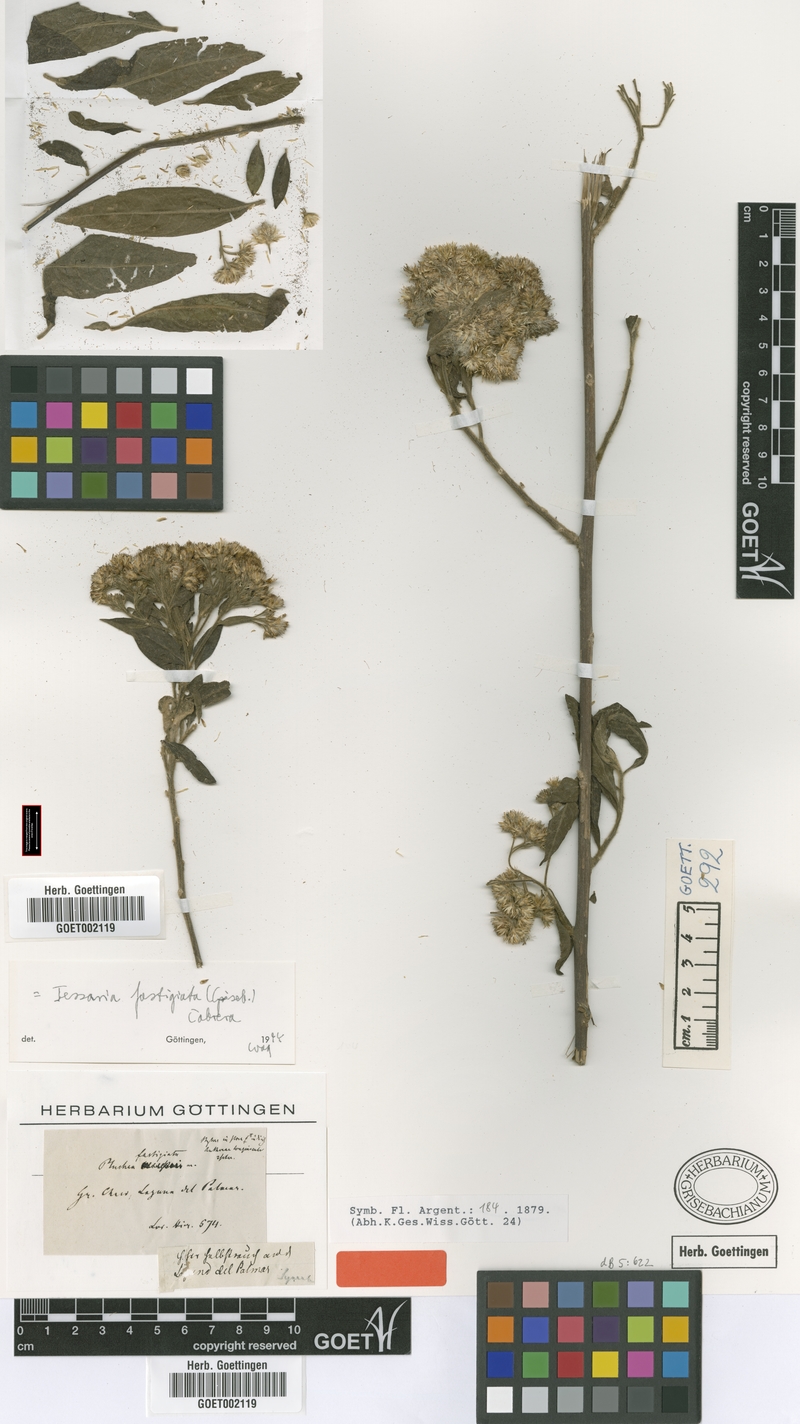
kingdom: Plantae
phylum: Tracheophyta
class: Magnoliopsida
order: Asterales
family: Asteraceae
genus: Tessaria
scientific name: Tessaria fastigiata
